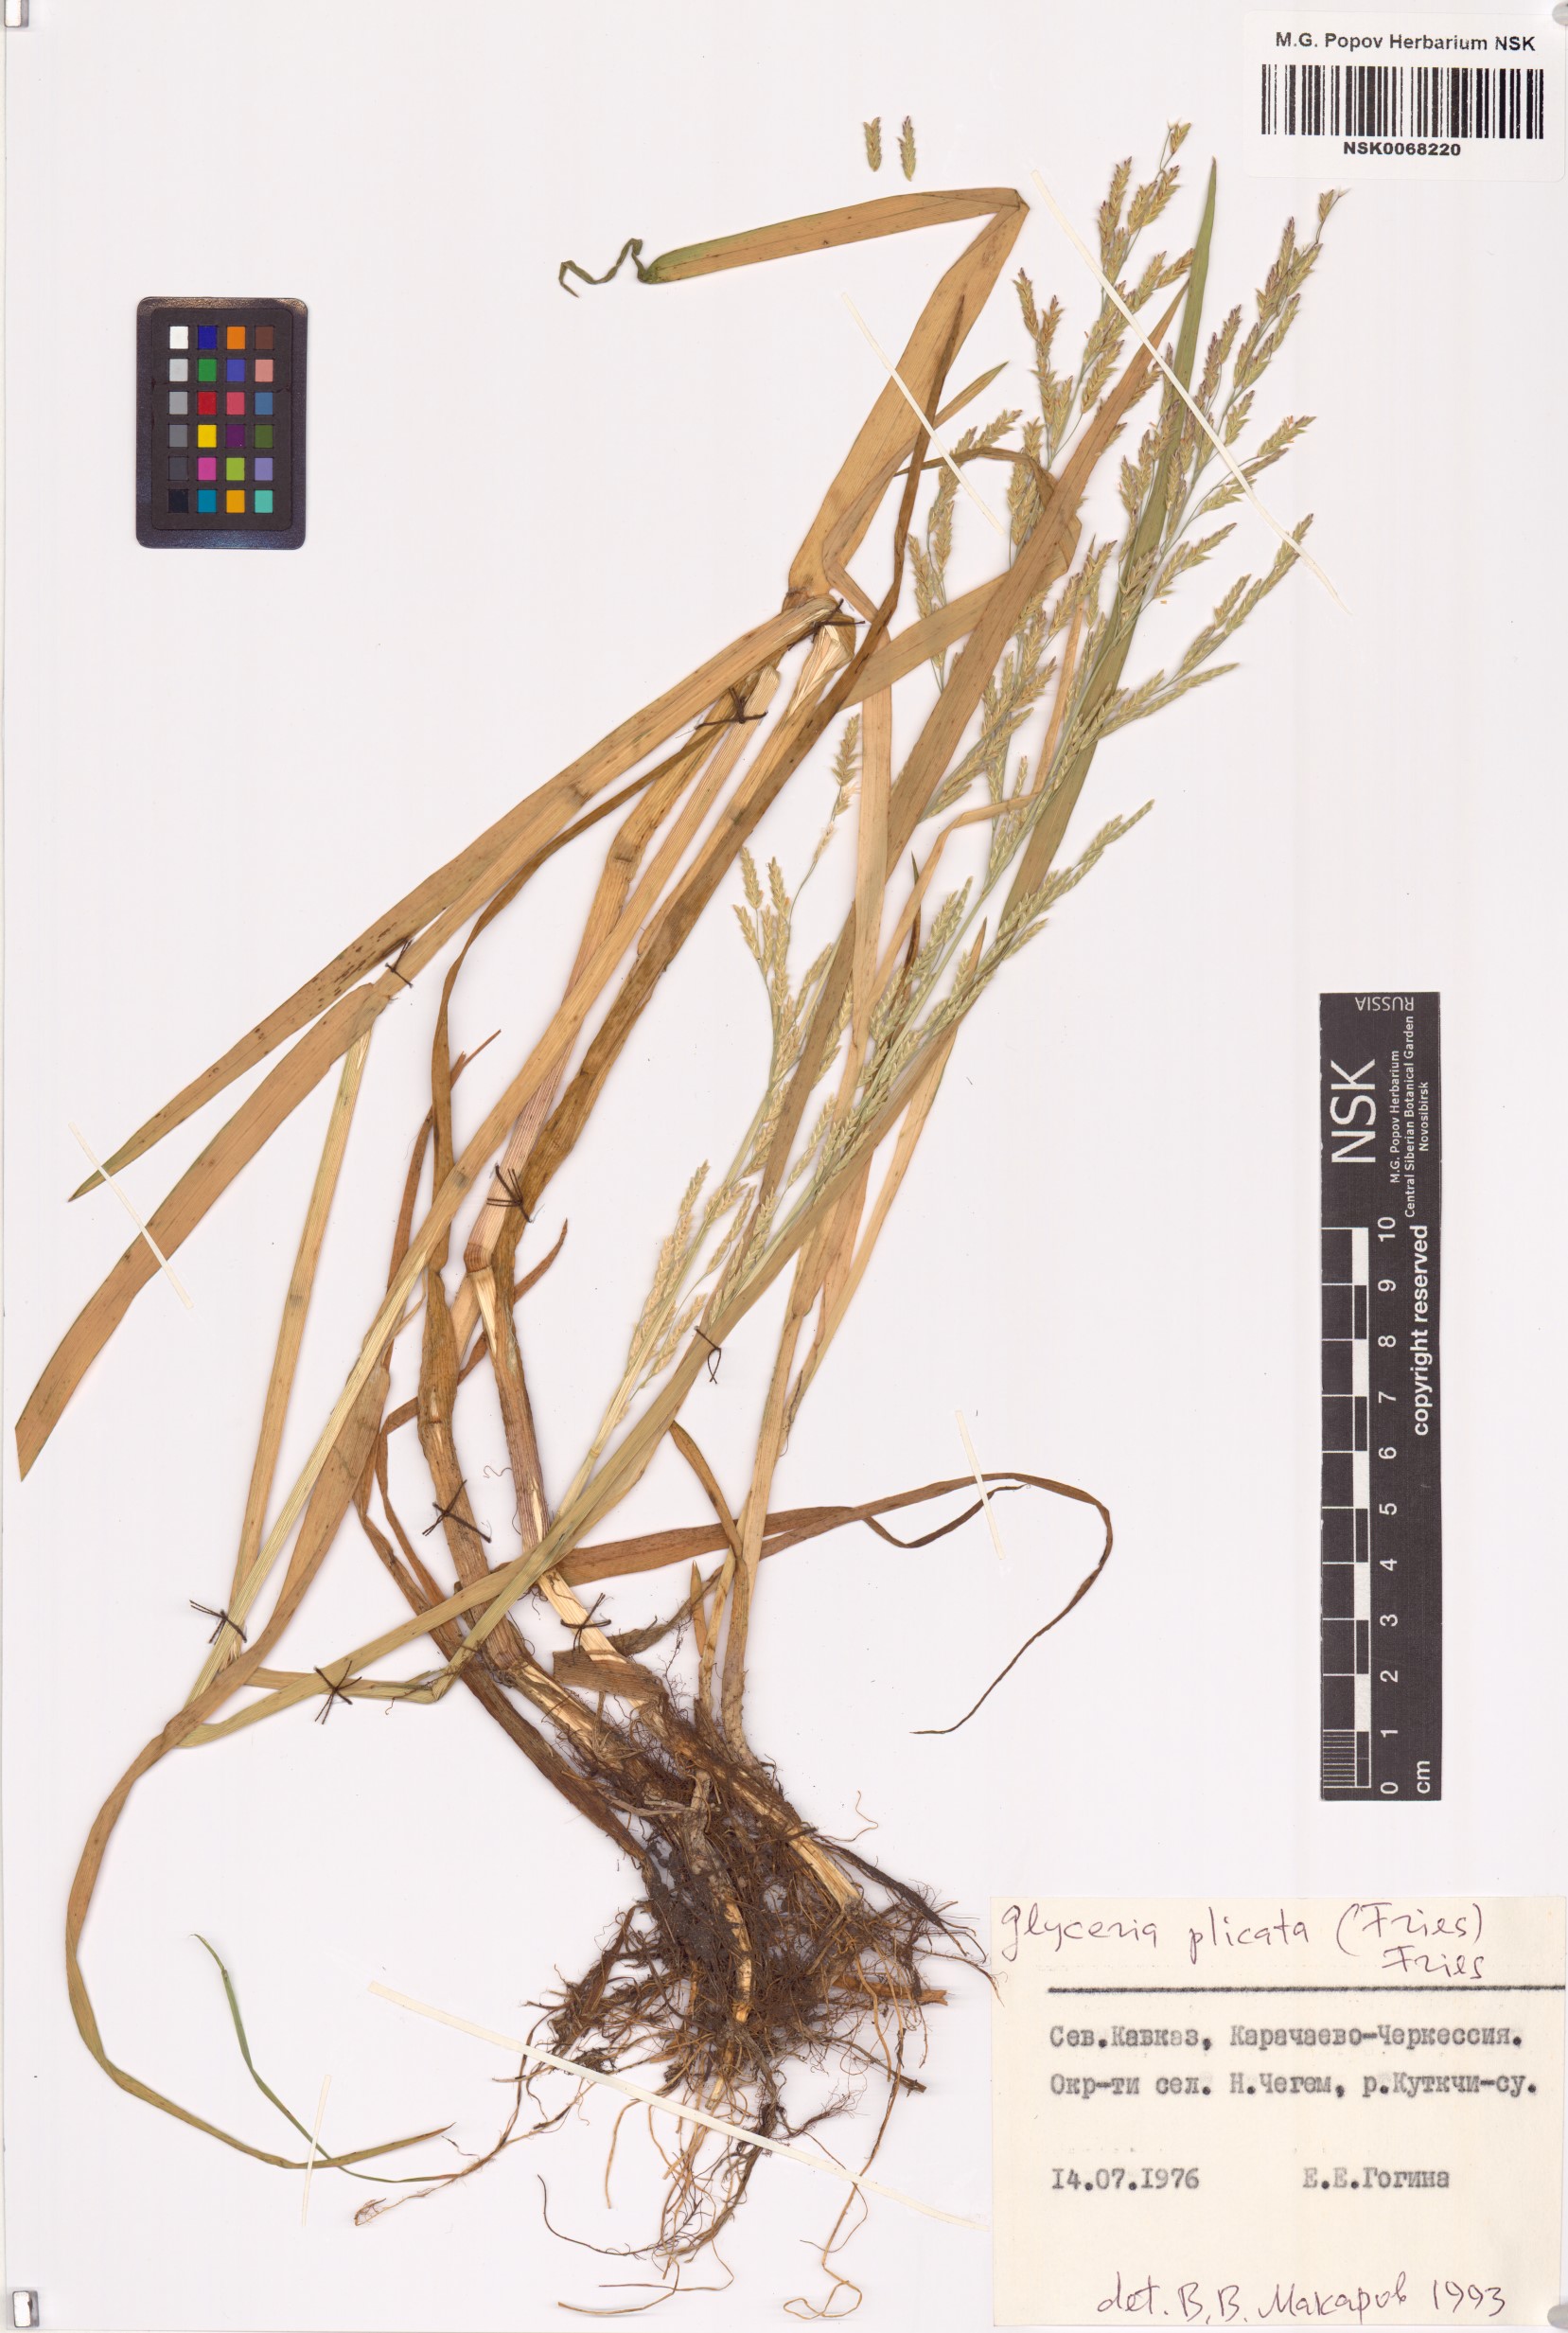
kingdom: Plantae
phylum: Tracheophyta
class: Liliopsida
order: Poales
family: Poaceae
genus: Glyceria
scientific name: Glyceria notata
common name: Plicate sweet-grass
